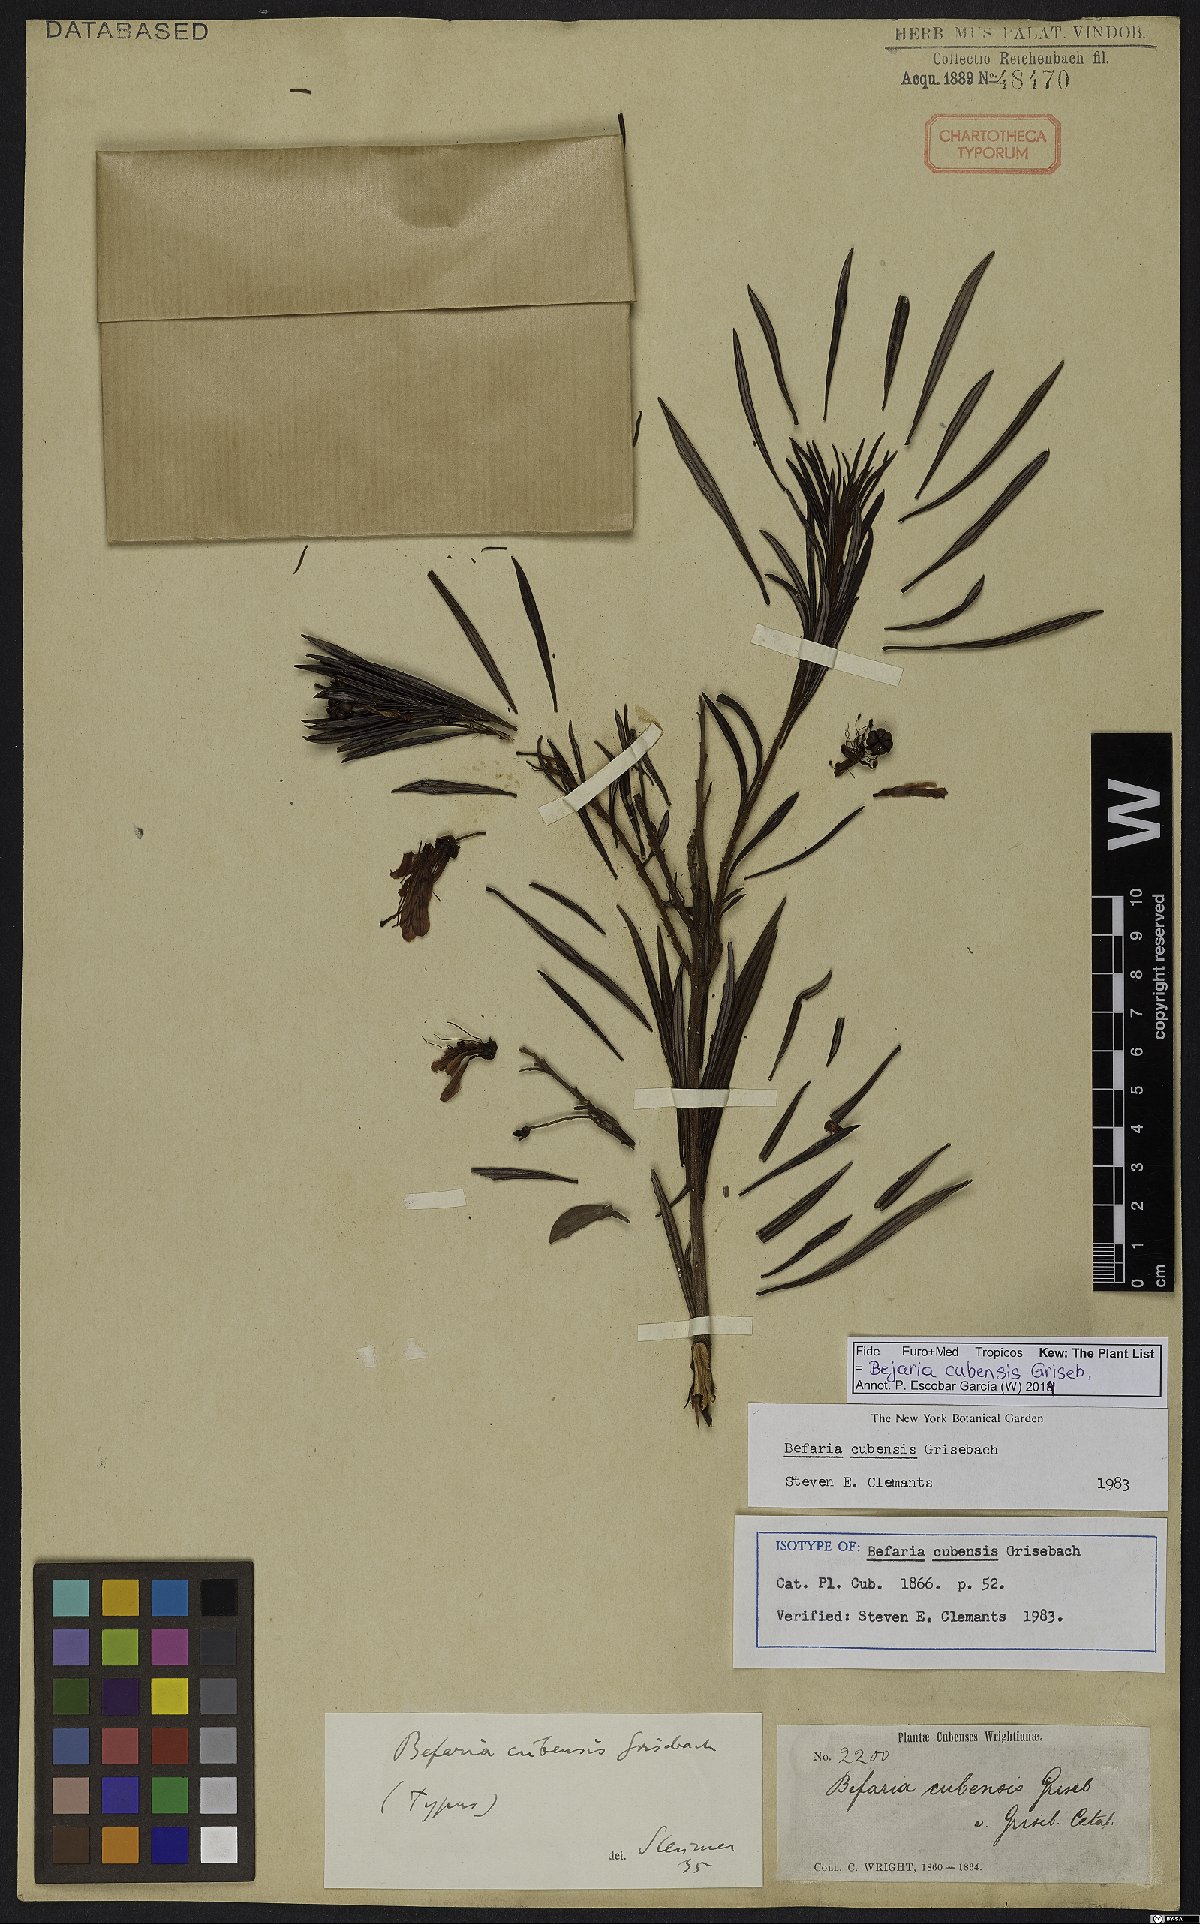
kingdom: Plantae
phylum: Tracheophyta
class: Magnoliopsida
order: Ericales
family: Ericaceae
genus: Bejaria
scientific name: Bejaria cubensis
